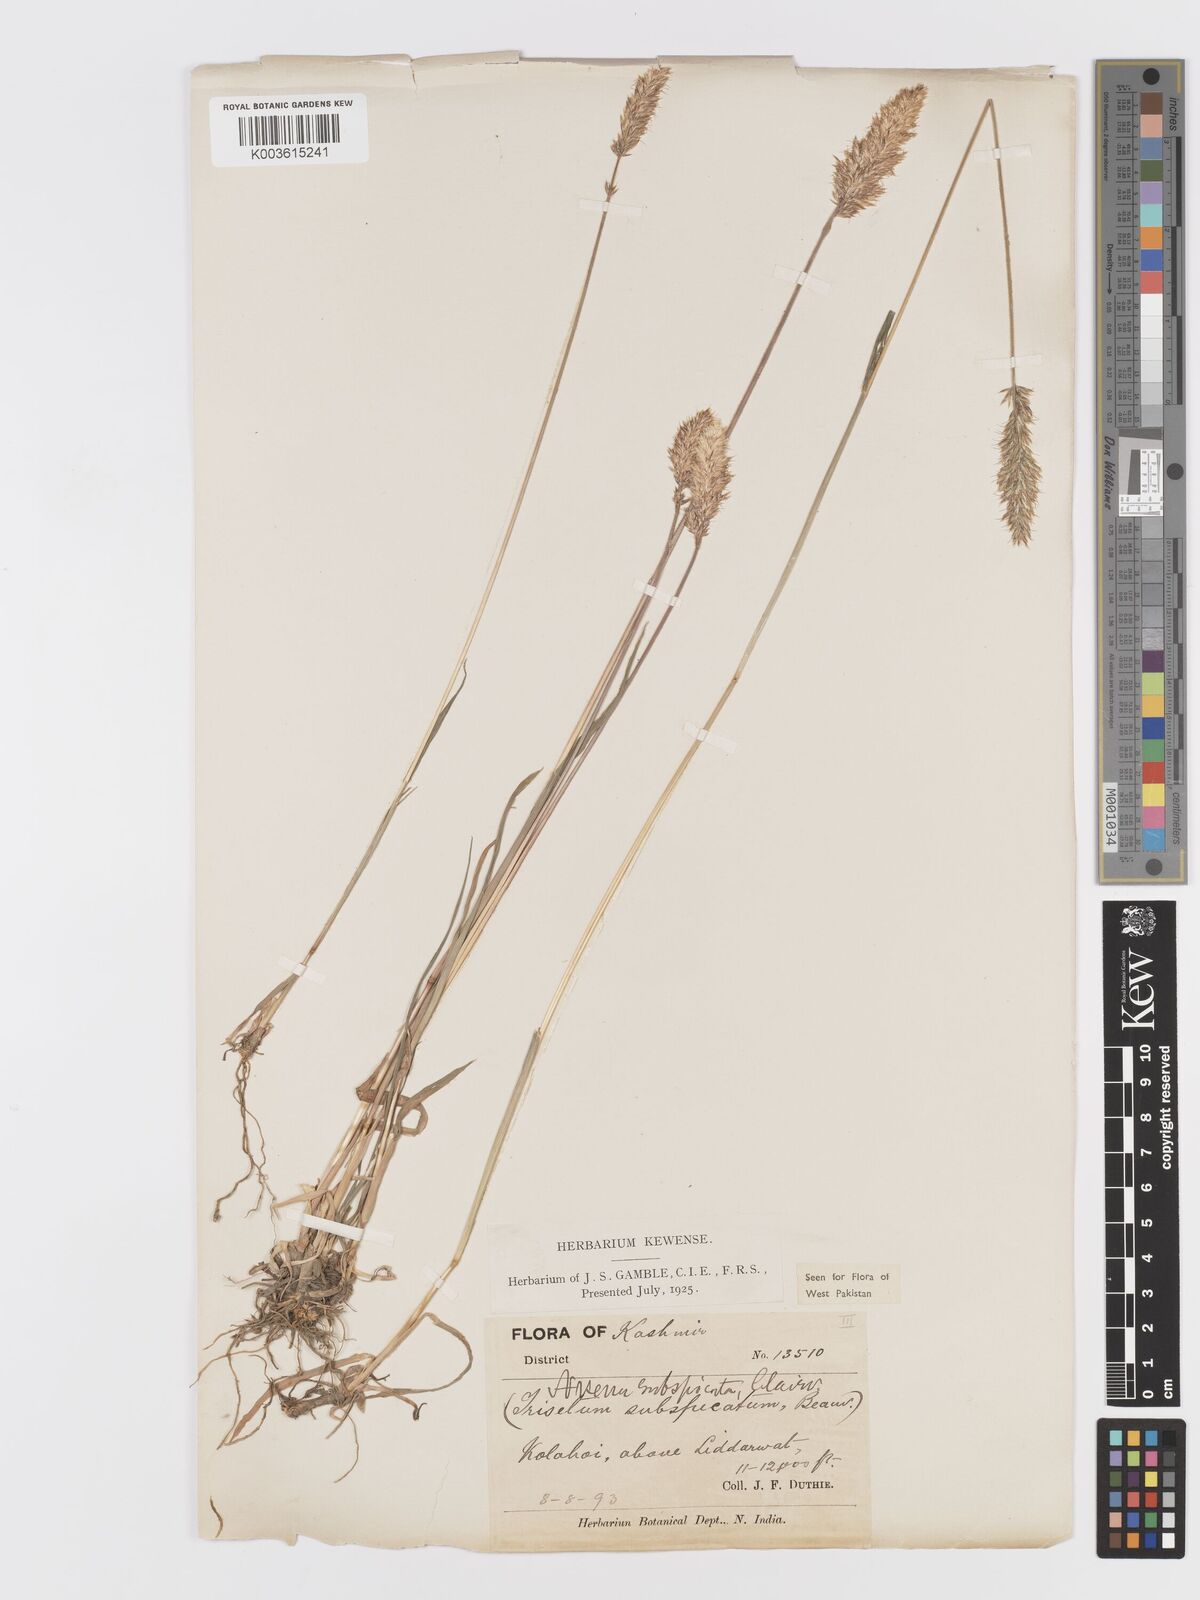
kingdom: Plantae
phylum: Tracheophyta
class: Liliopsida
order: Poales
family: Poaceae
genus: Koeleria
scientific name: Koeleria spicata
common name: Mountain trisetum
